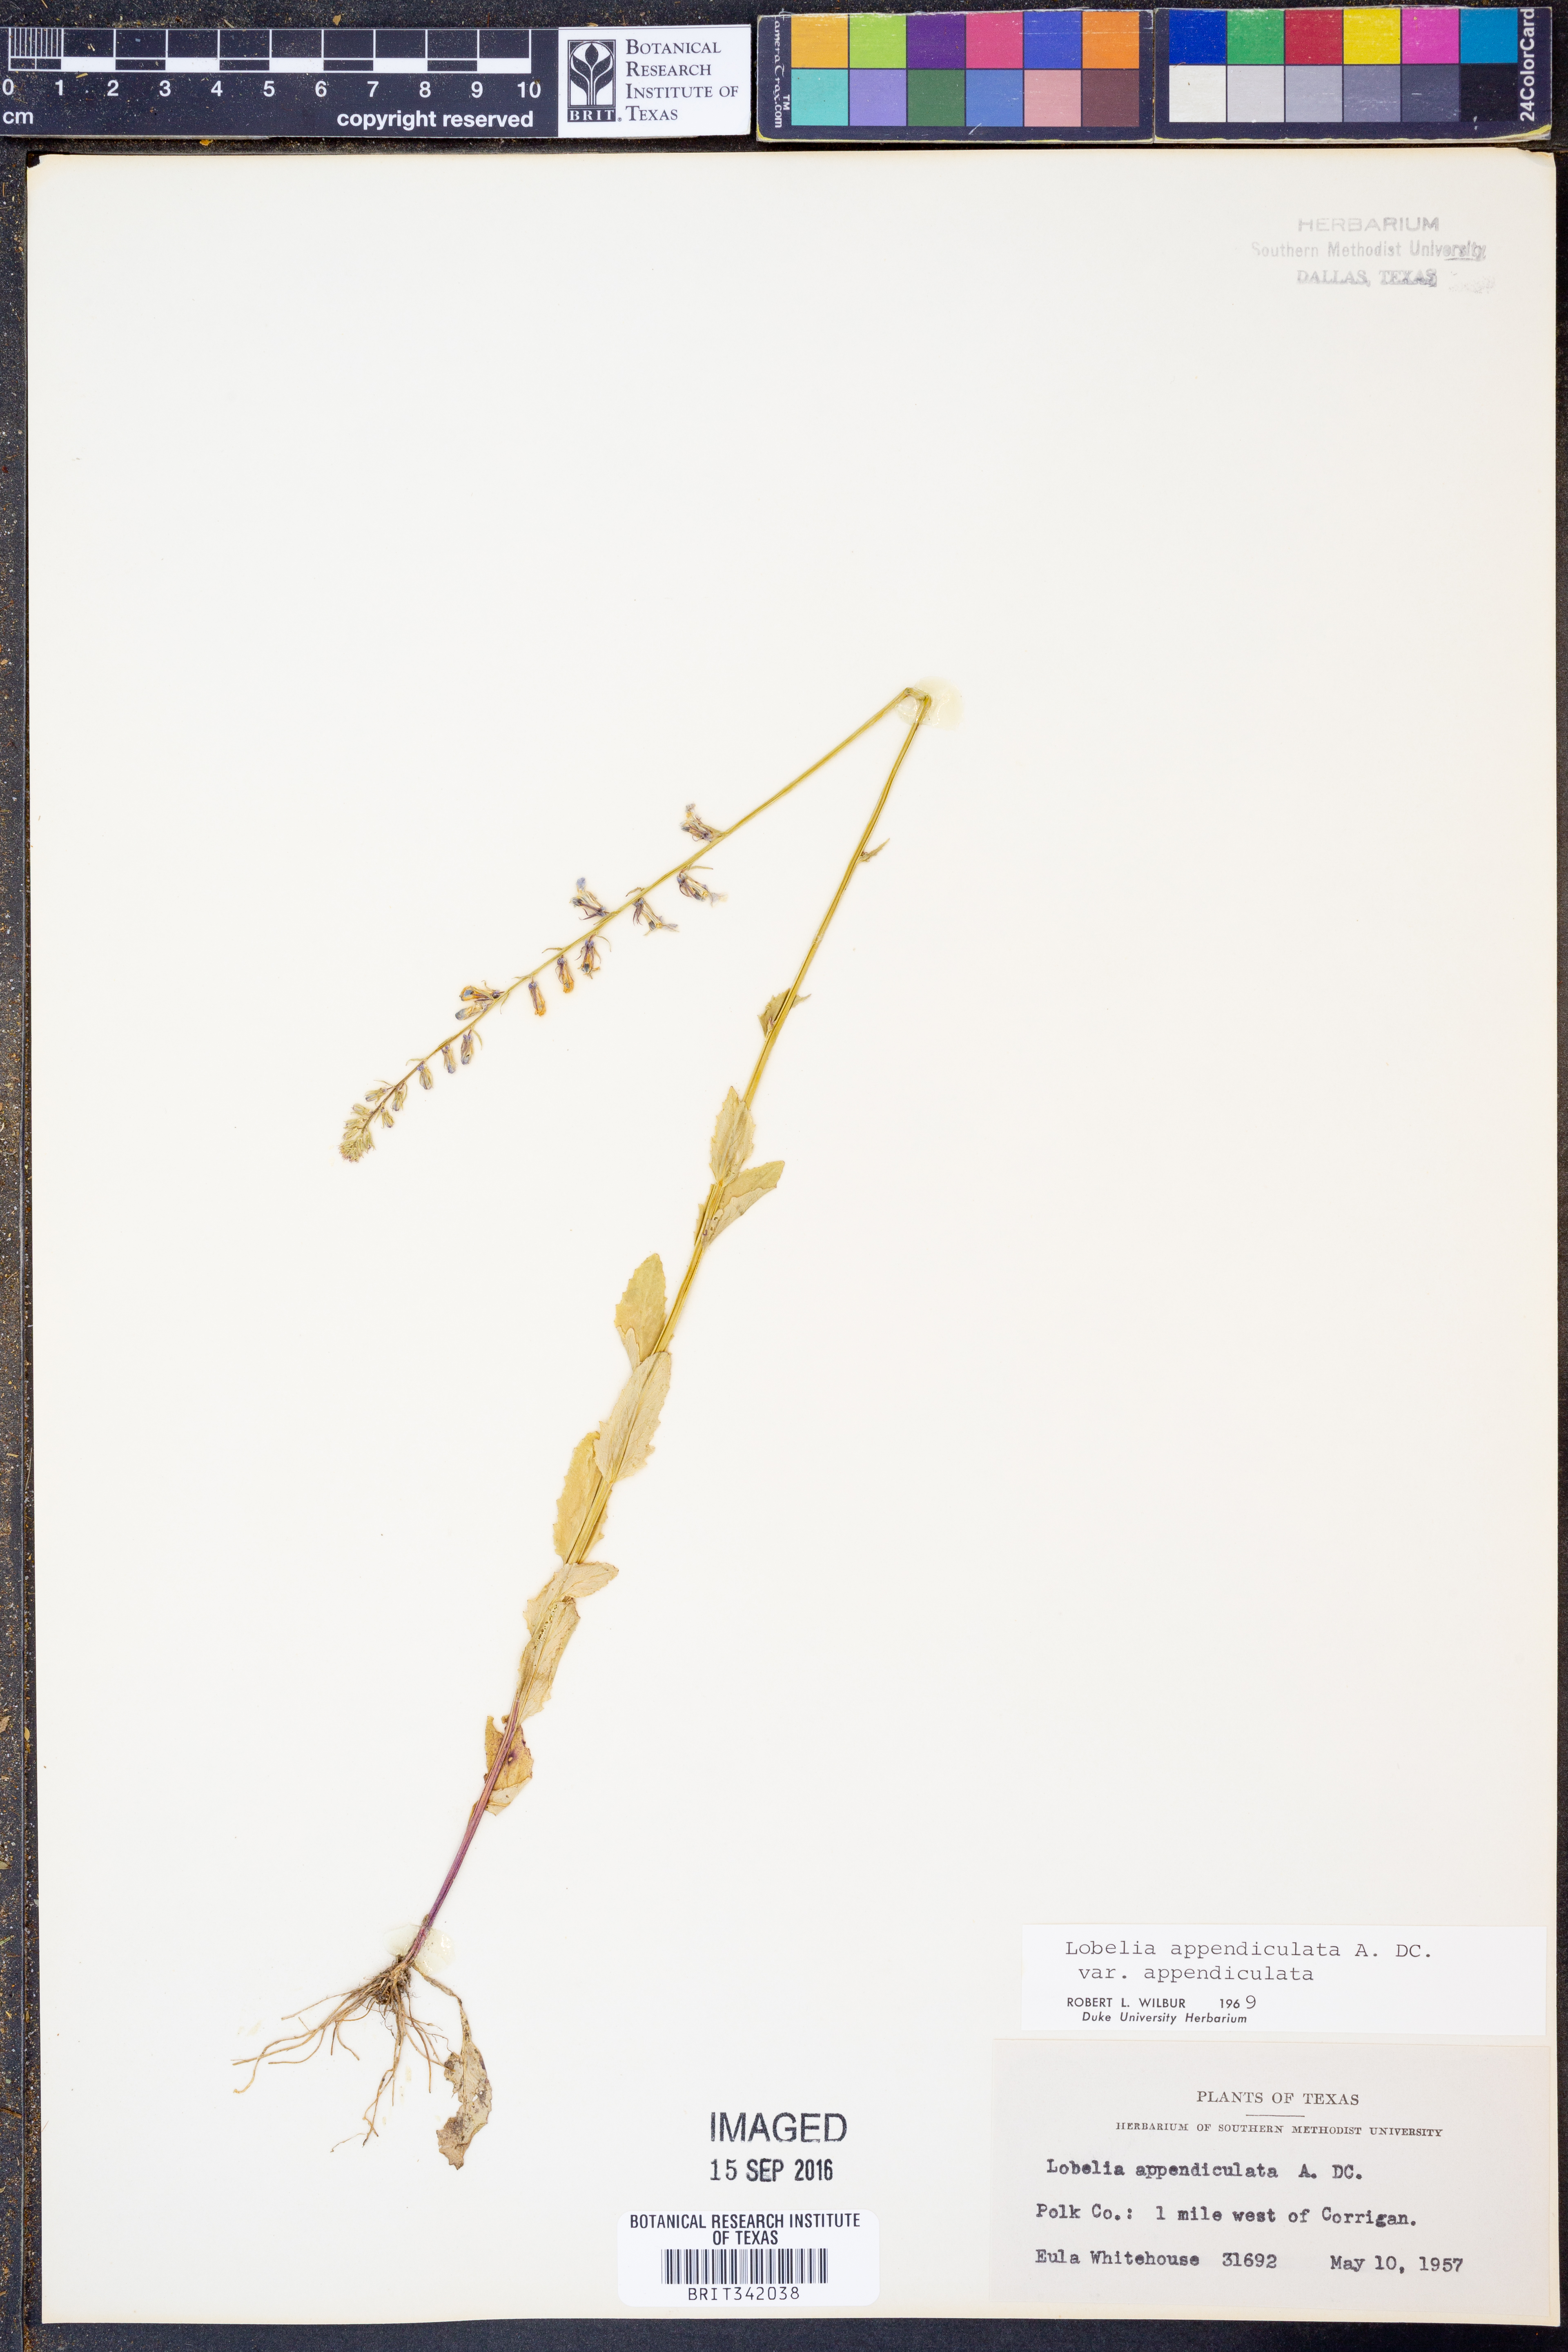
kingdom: Plantae
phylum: Tracheophyta
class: Magnoliopsida
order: Asterales
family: Campanulaceae
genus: Lobelia
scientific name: Lobelia appendiculata
